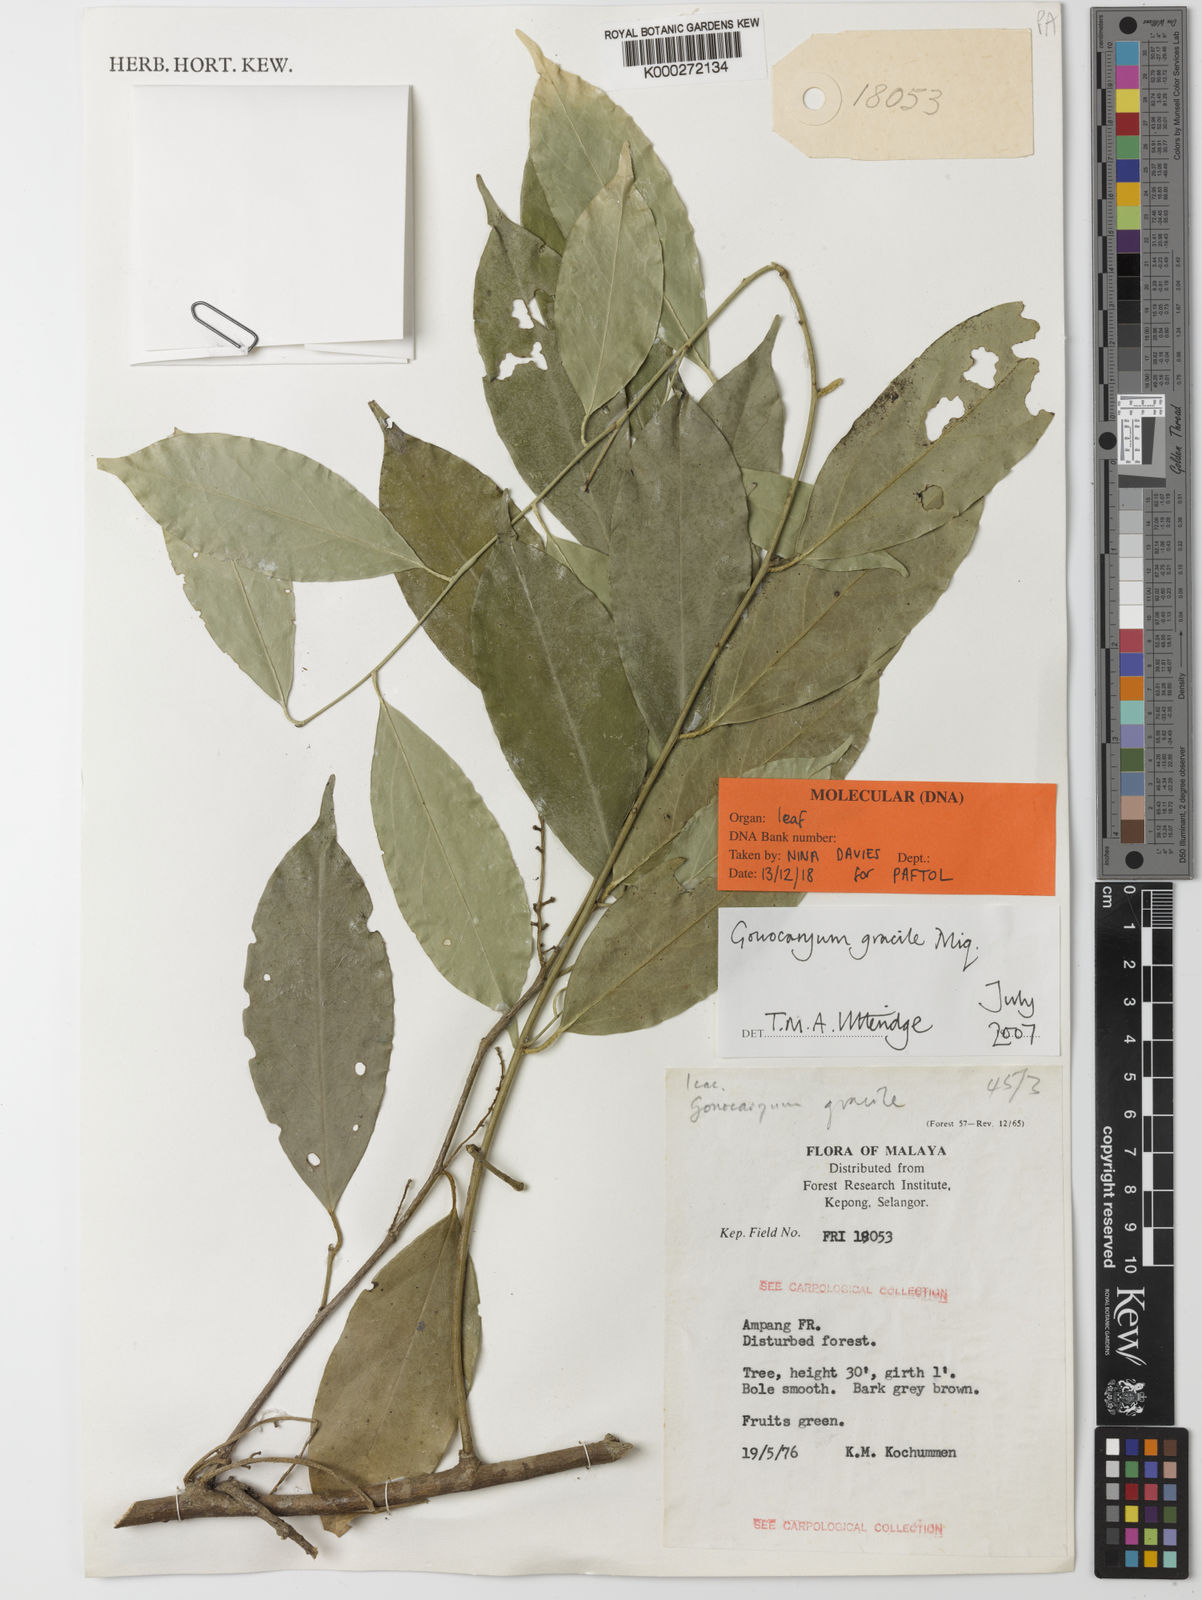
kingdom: Plantae
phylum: Tracheophyta
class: Magnoliopsida
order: Cardiopteridales
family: Cardiopteridaceae
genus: Gonocaryum
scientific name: Gonocaryum gracile
